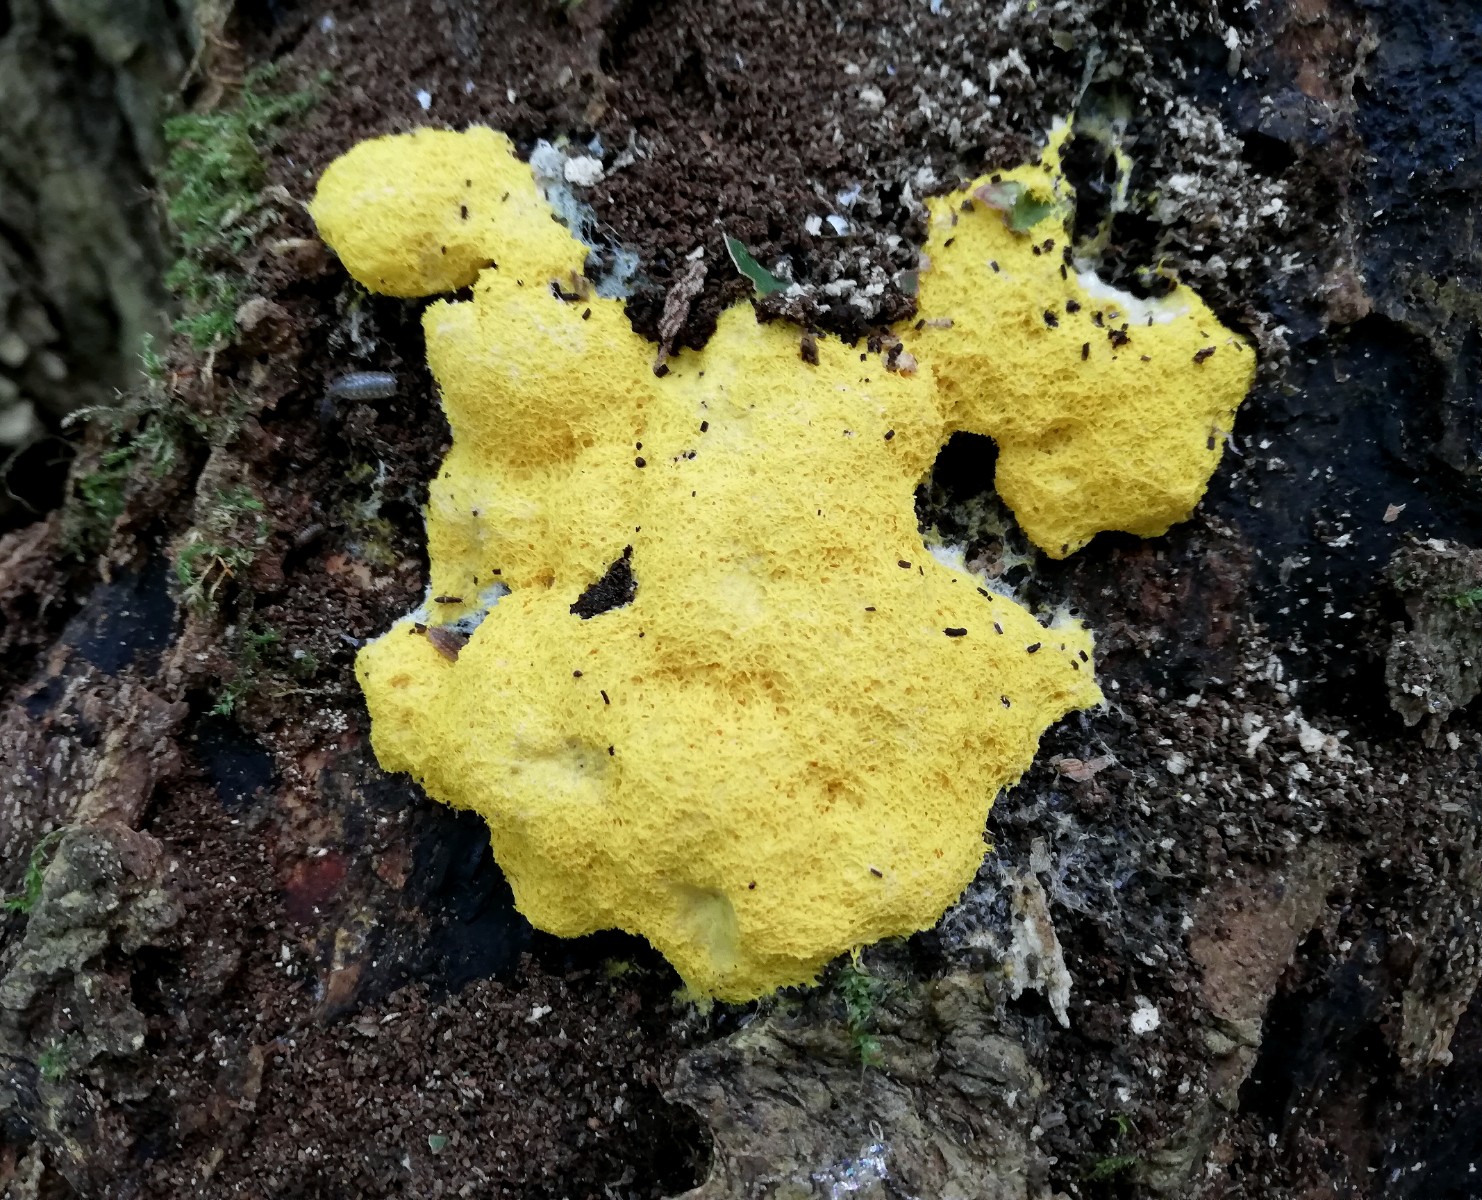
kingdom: Protozoa
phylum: Mycetozoa
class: Myxomycetes
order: Physarales
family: Physaraceae
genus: Fuligo
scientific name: Fuligo septica
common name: gul troldsmør
